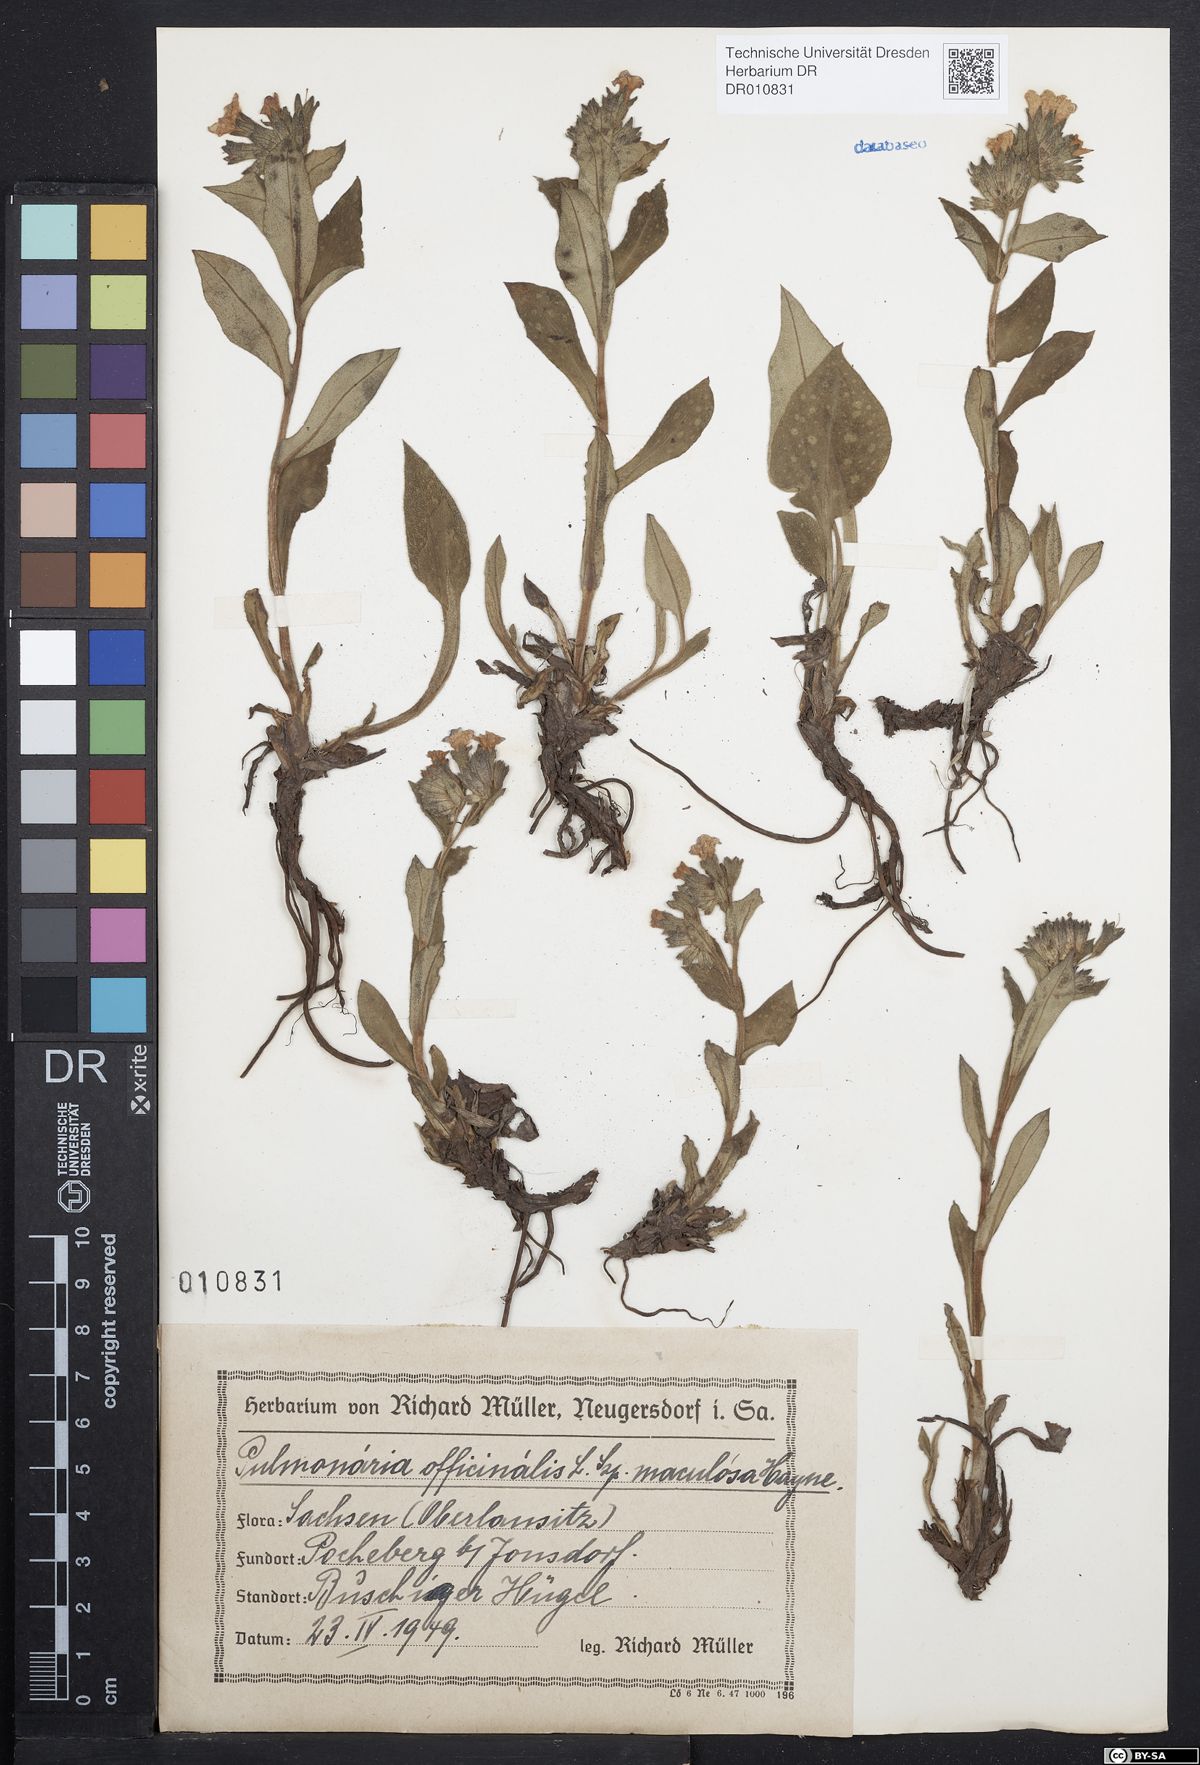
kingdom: Plantae
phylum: Tracheophyta
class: Magnoliopsida
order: Boraginales
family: Boraginaceae
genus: Pulmonaria
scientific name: Pulmonaria officinalis
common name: Lungwort
